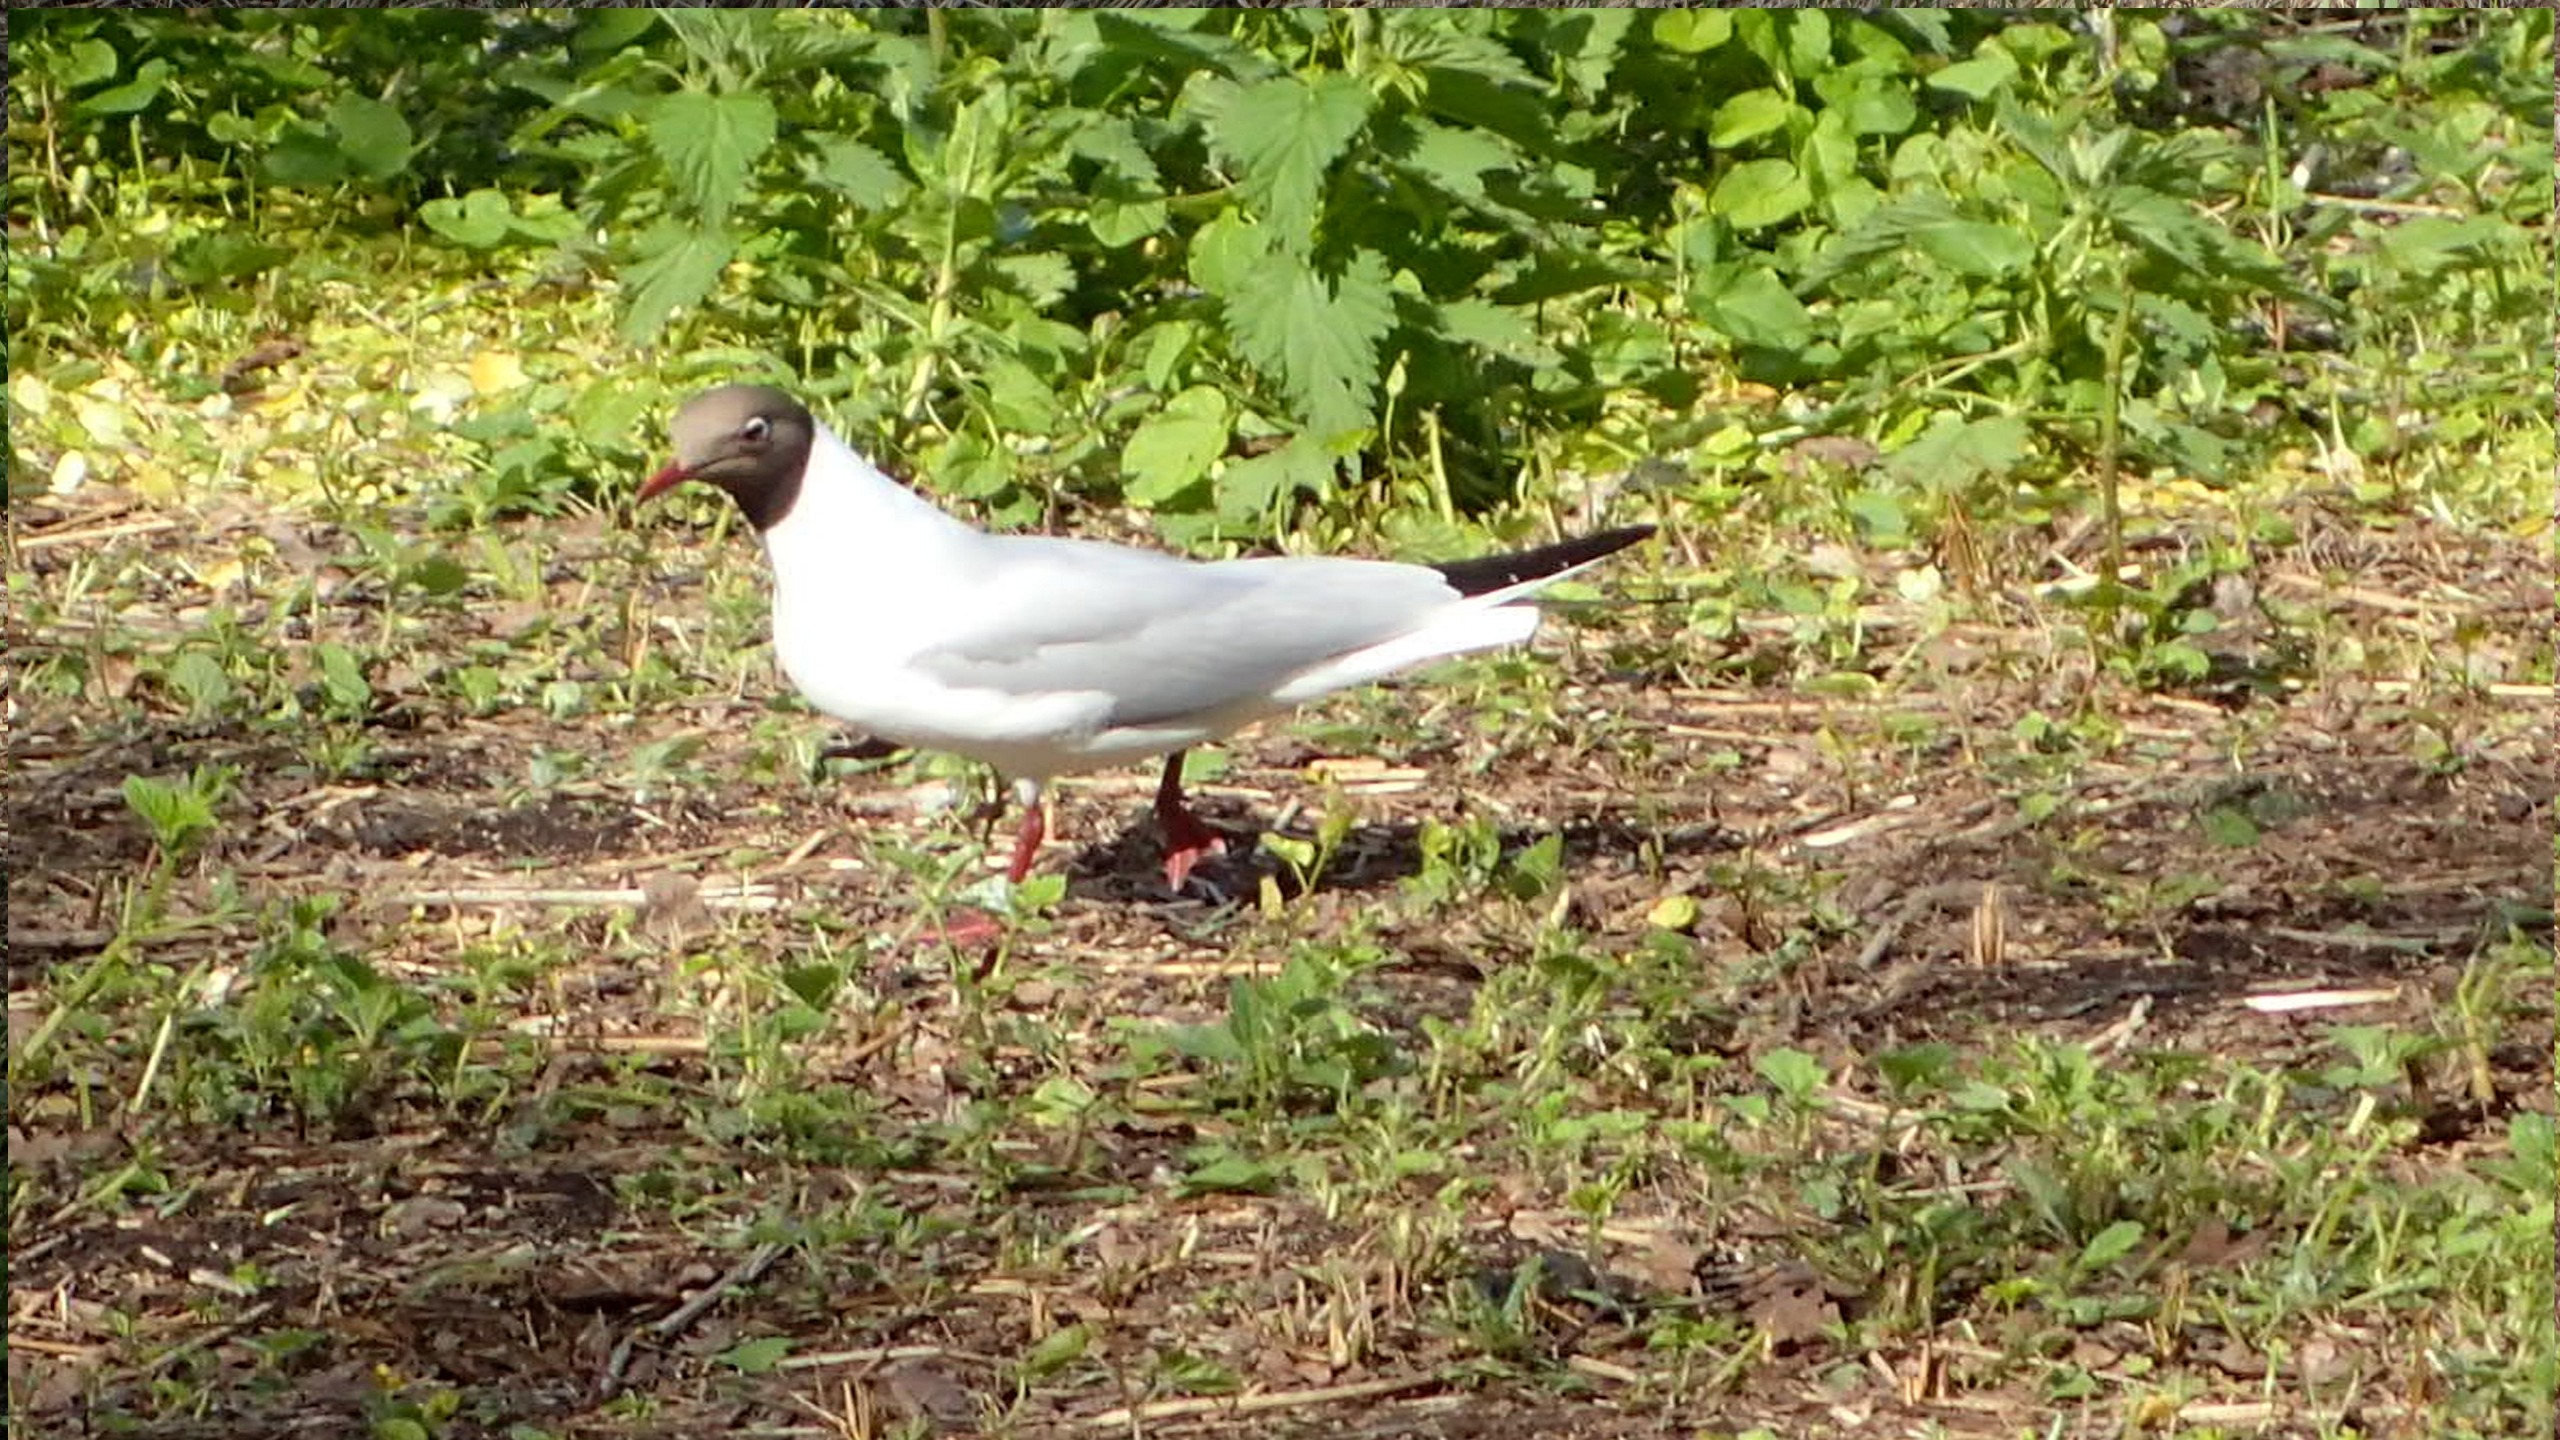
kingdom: Animalia
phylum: Chordata
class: Aves
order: Charadriiformes
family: Laridae
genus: Chroicocephalus
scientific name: Chroicocephalus ridibundus
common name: Hættemåge
